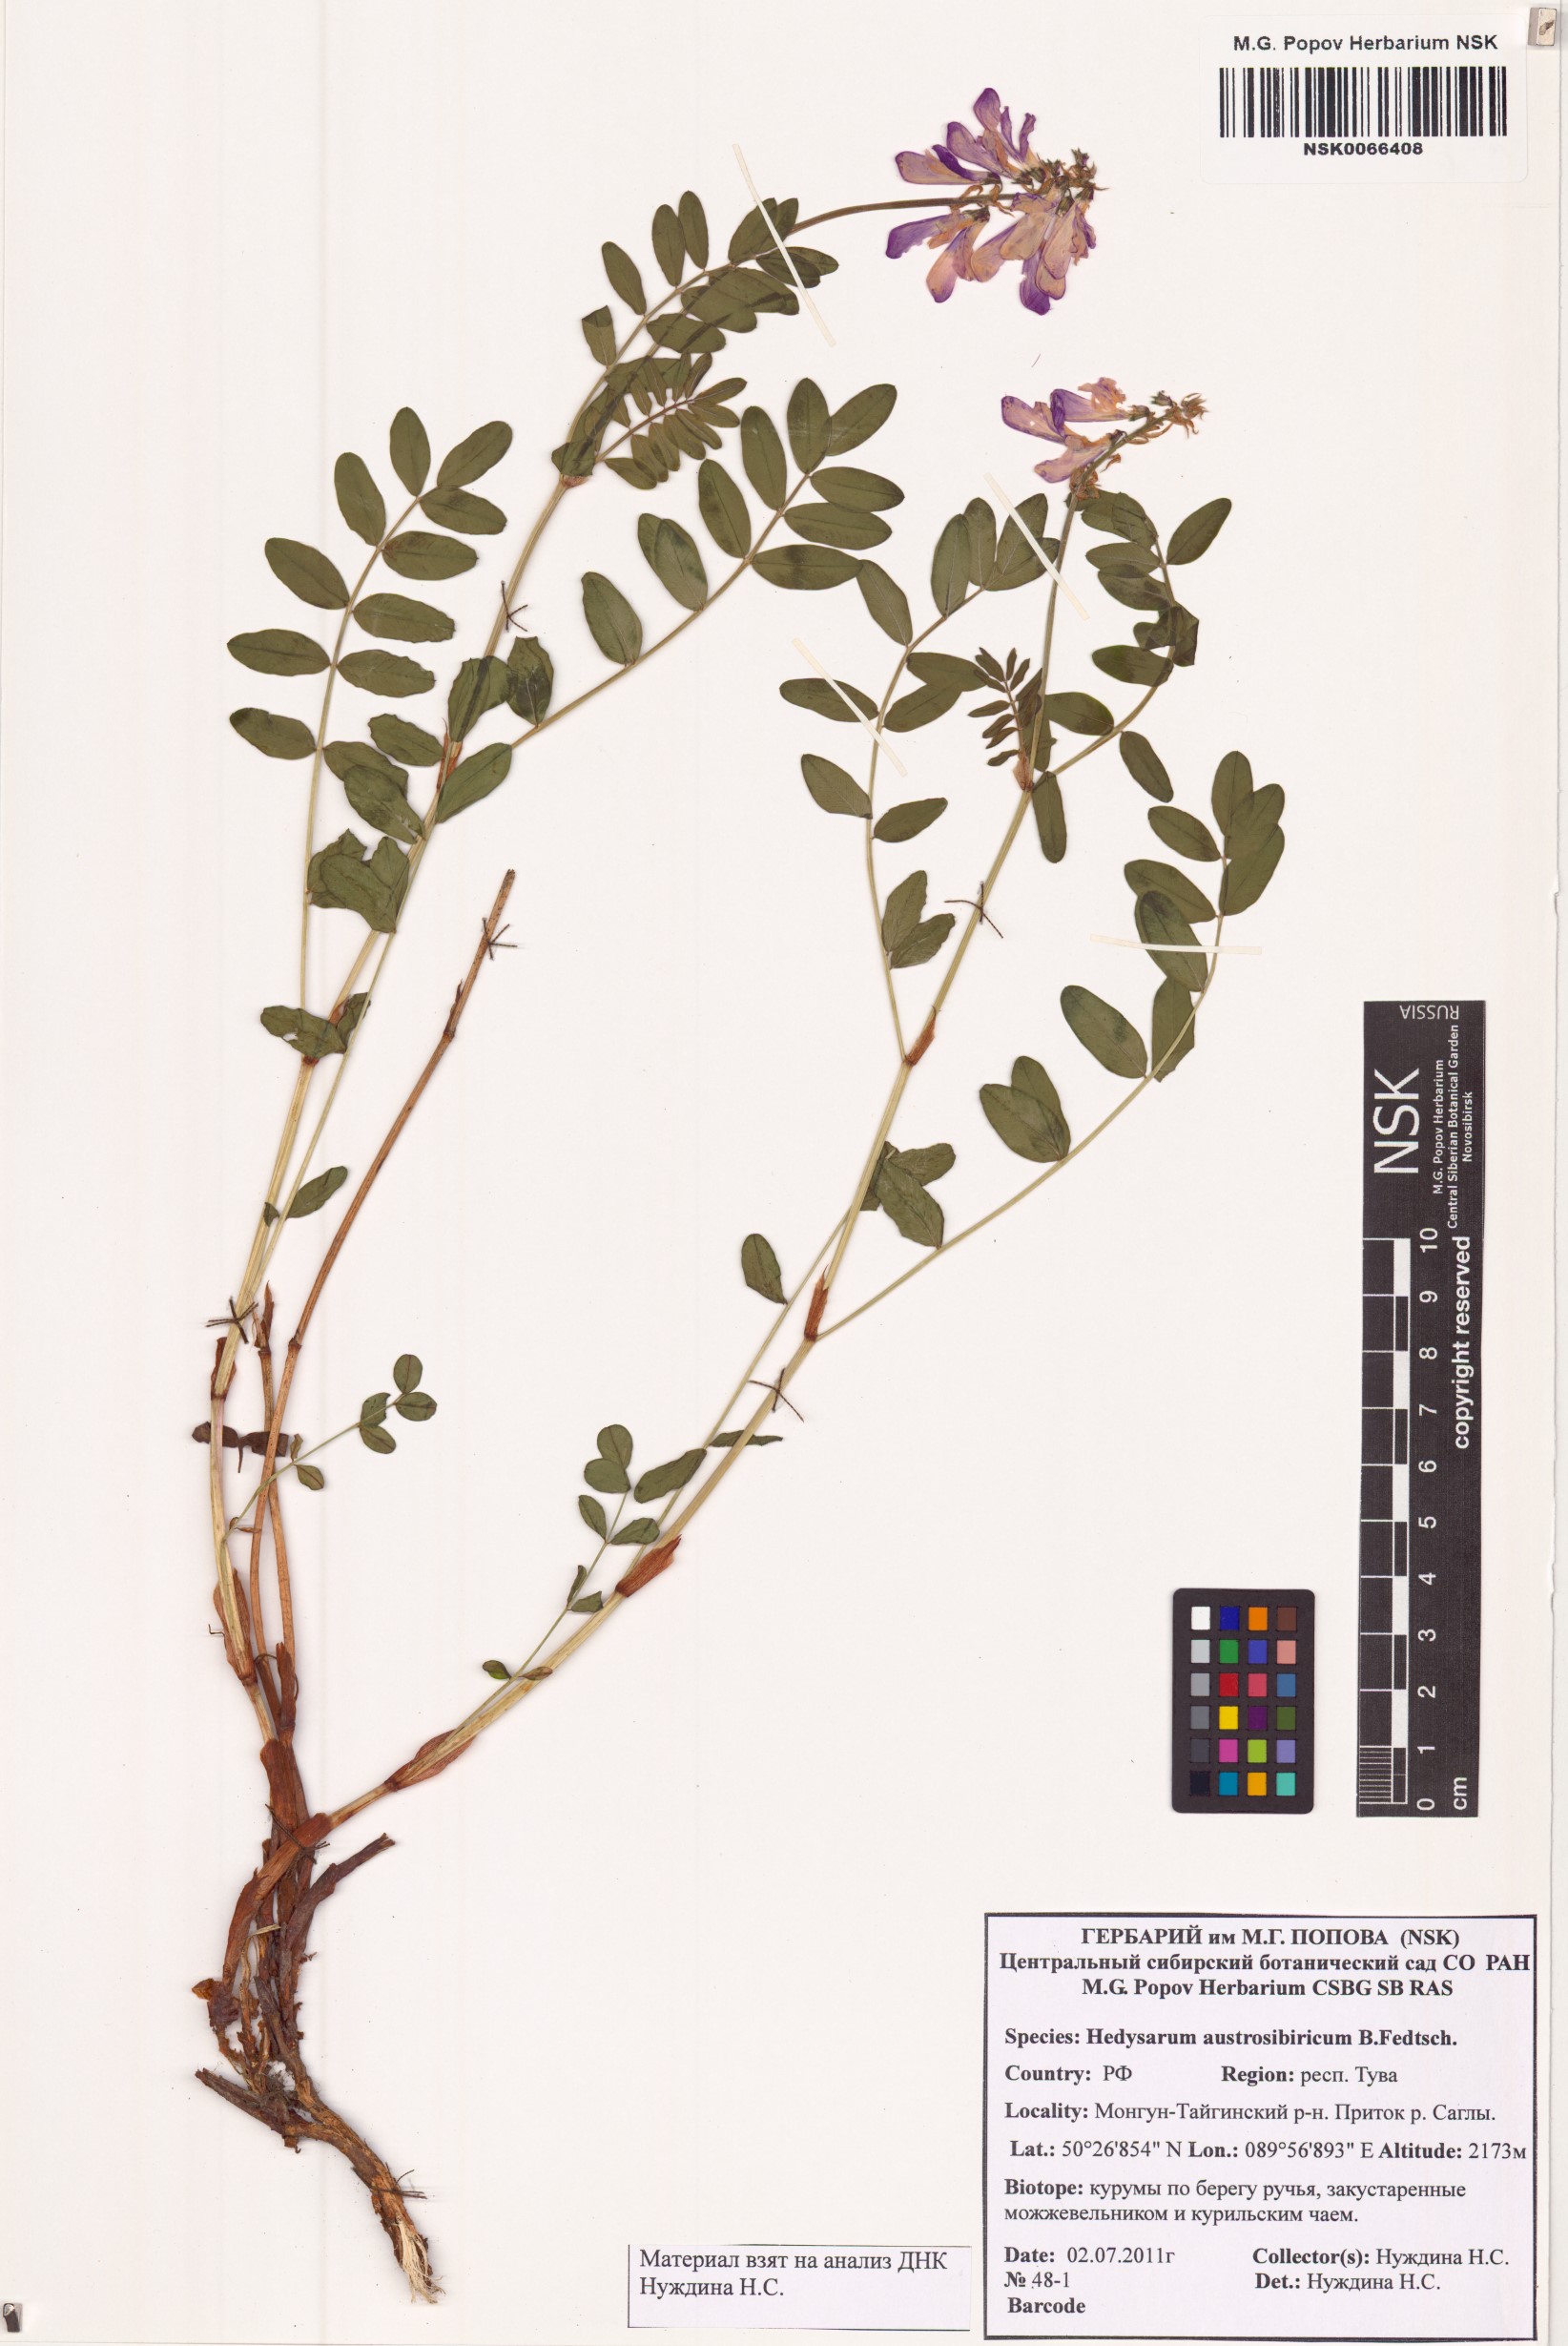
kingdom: Plantae
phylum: Tracheophyta
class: Magnoliopsida
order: Fabales
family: Fabaceae
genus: Hedysarum
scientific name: Hedysarum neglectum
